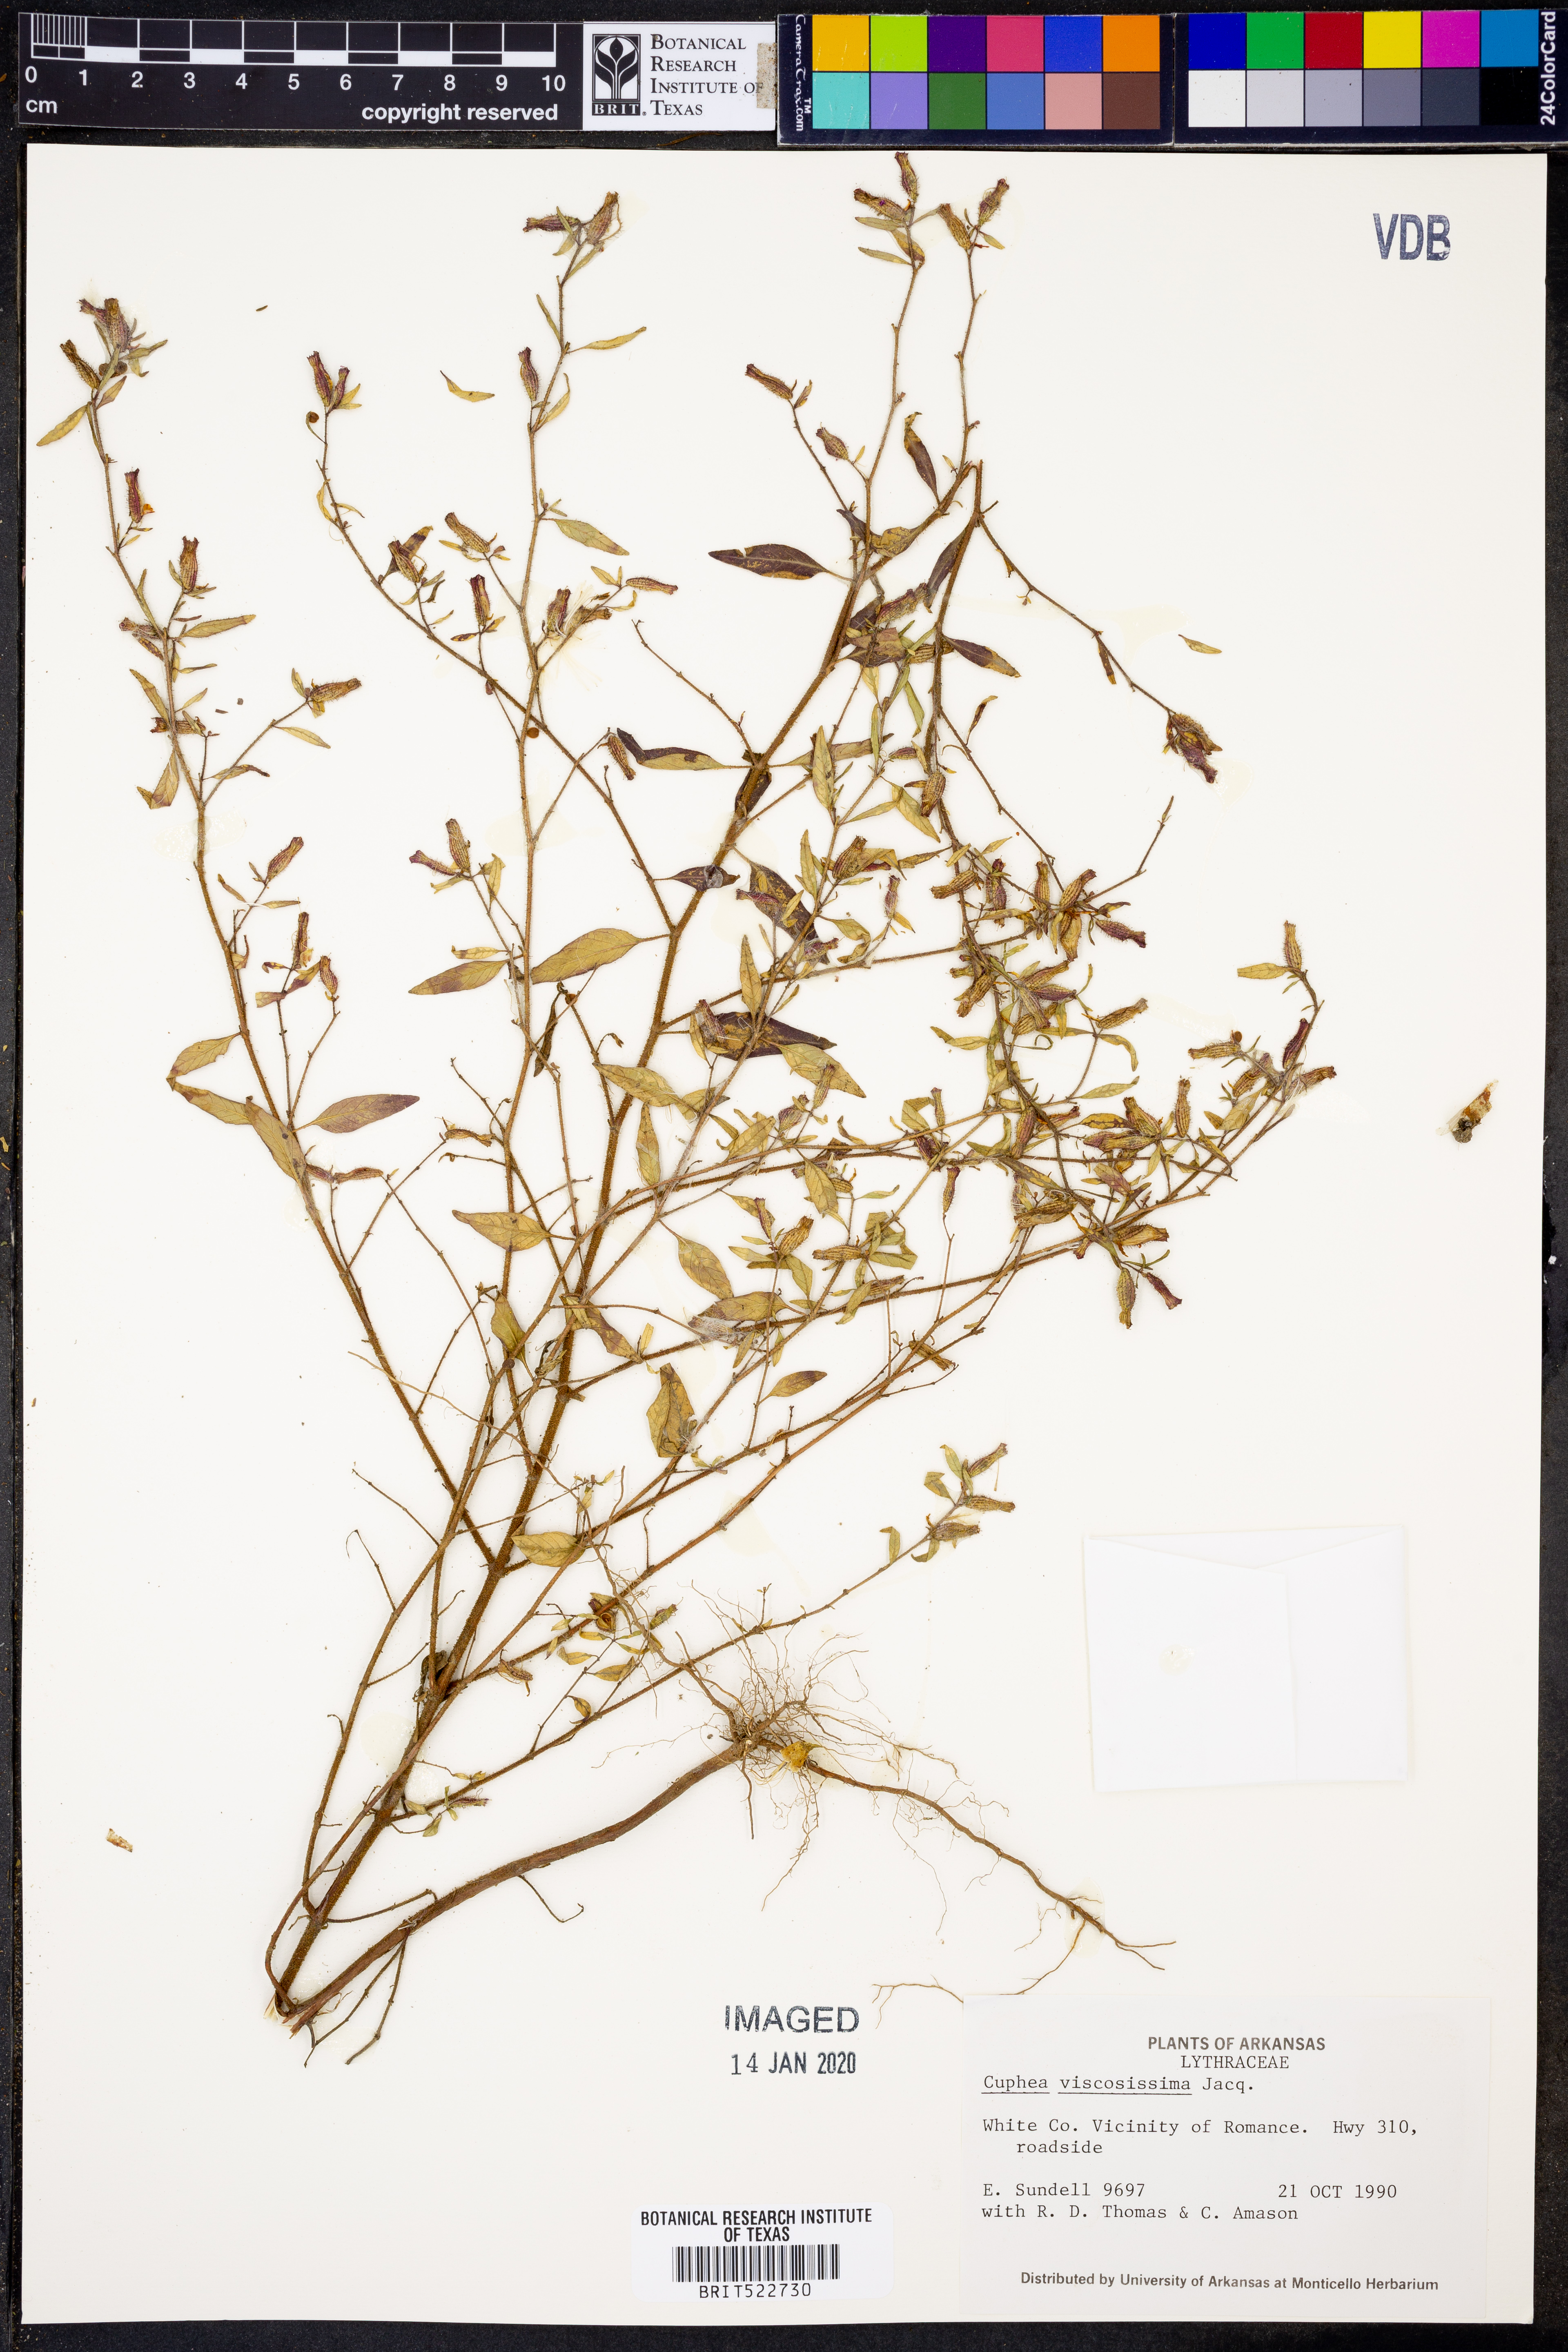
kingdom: Plantae
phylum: Tracheophyta
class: Magnoliopsida
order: Myrtales
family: Lythraceae
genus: Cuphea
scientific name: Cuphea viscosissima
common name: Clammy cuphea
